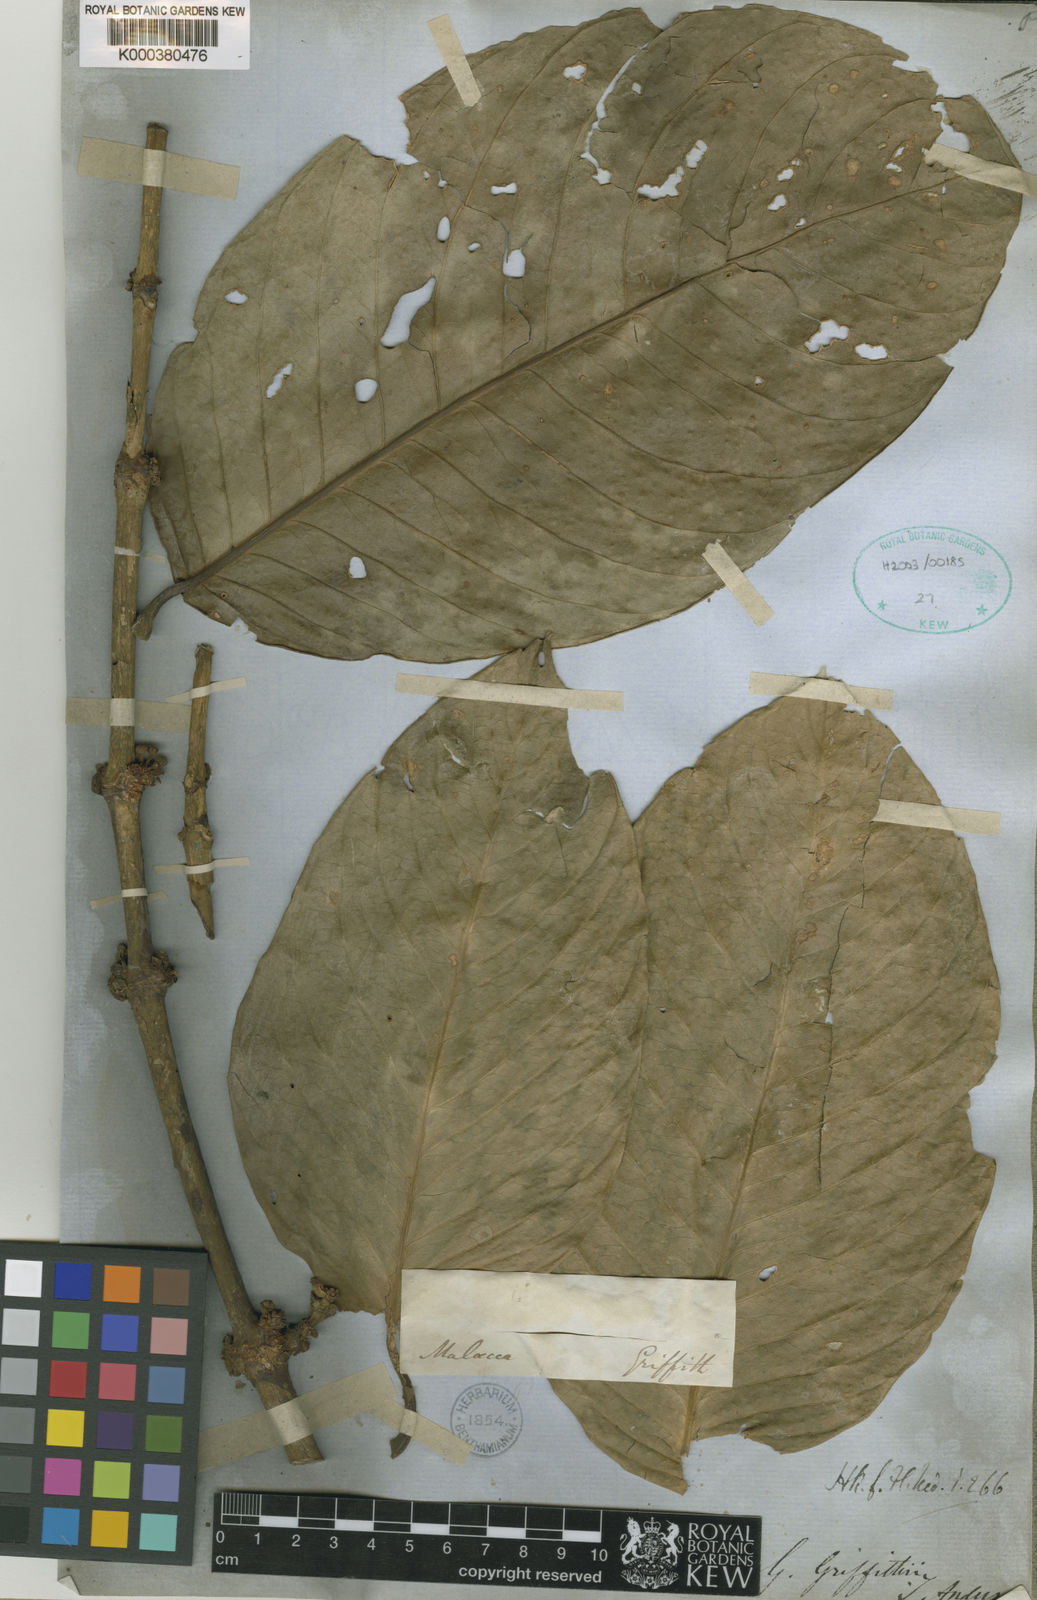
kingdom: Plantae
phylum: Tracheophyta
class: Magnoliopsida
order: Malpighiales
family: Clusiaceae
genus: Garcinia
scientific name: Garcinia griffithii
